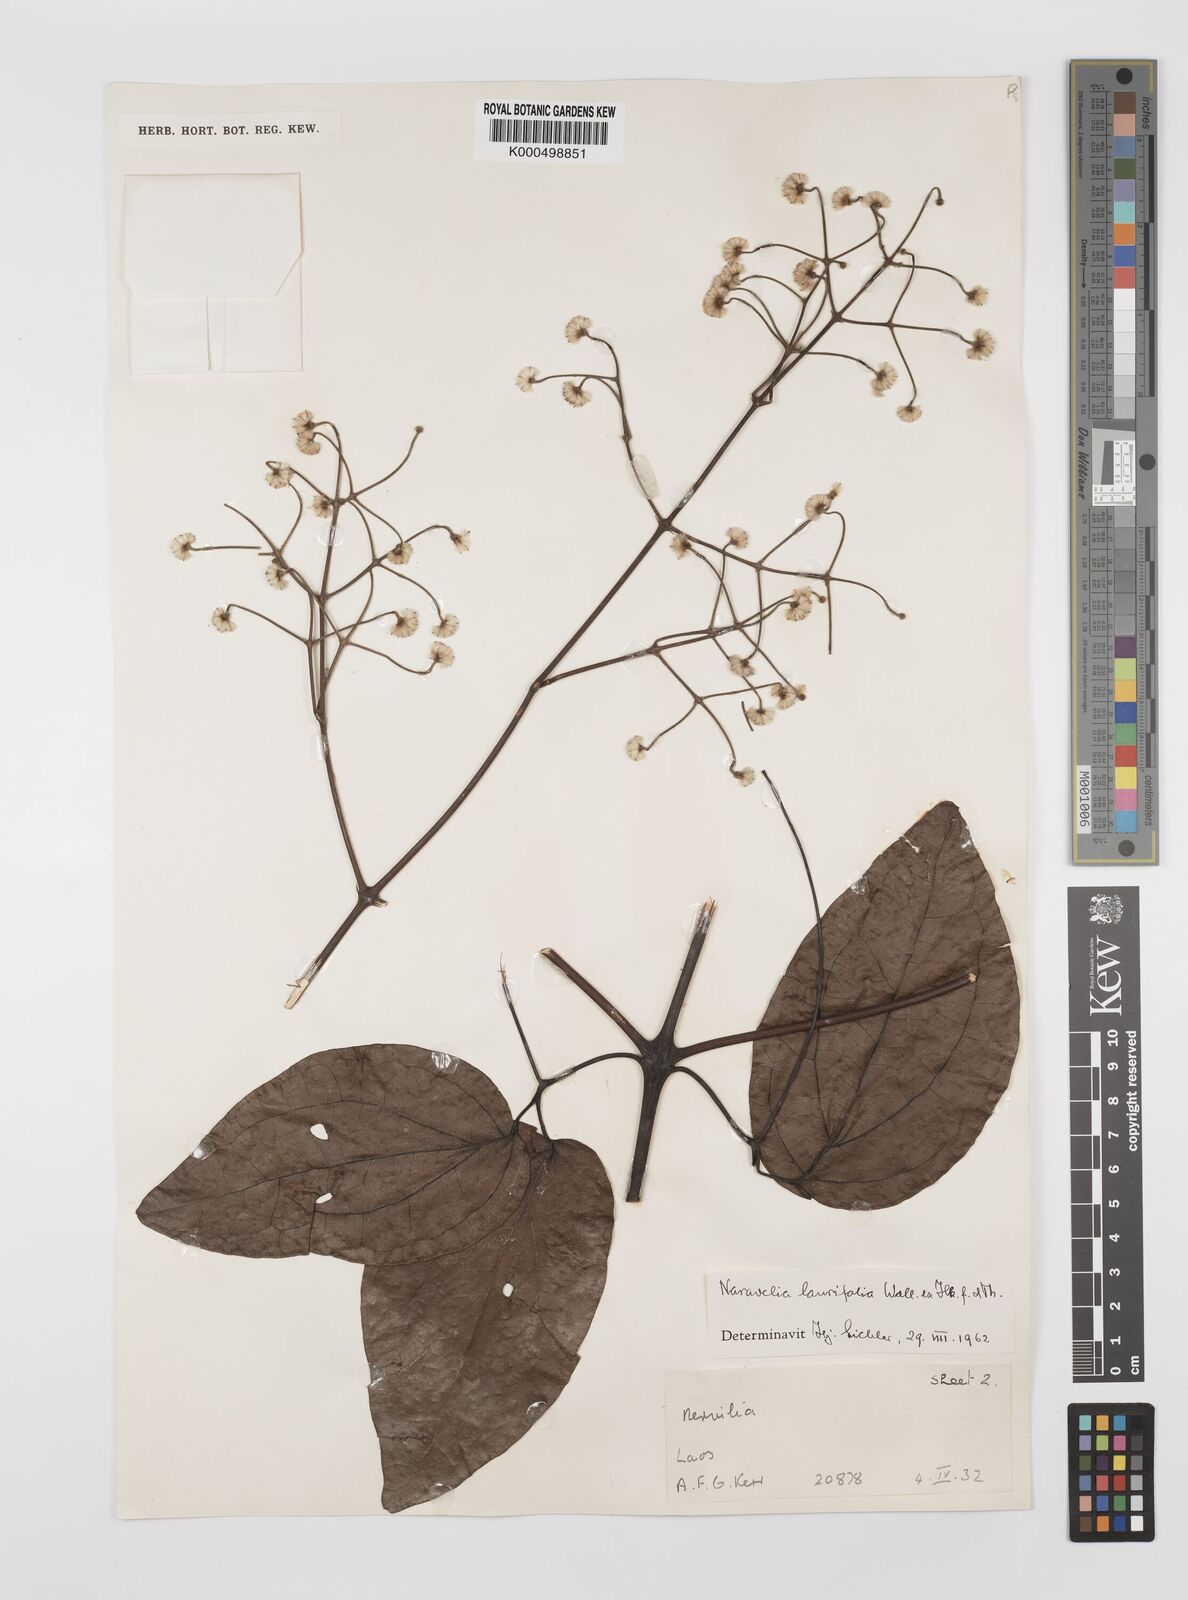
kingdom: Plantae
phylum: Tracheophyta
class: Magnoliopsida
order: Ranunculales
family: Ranunculaceae
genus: Clematis
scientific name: Clematis horripilata
